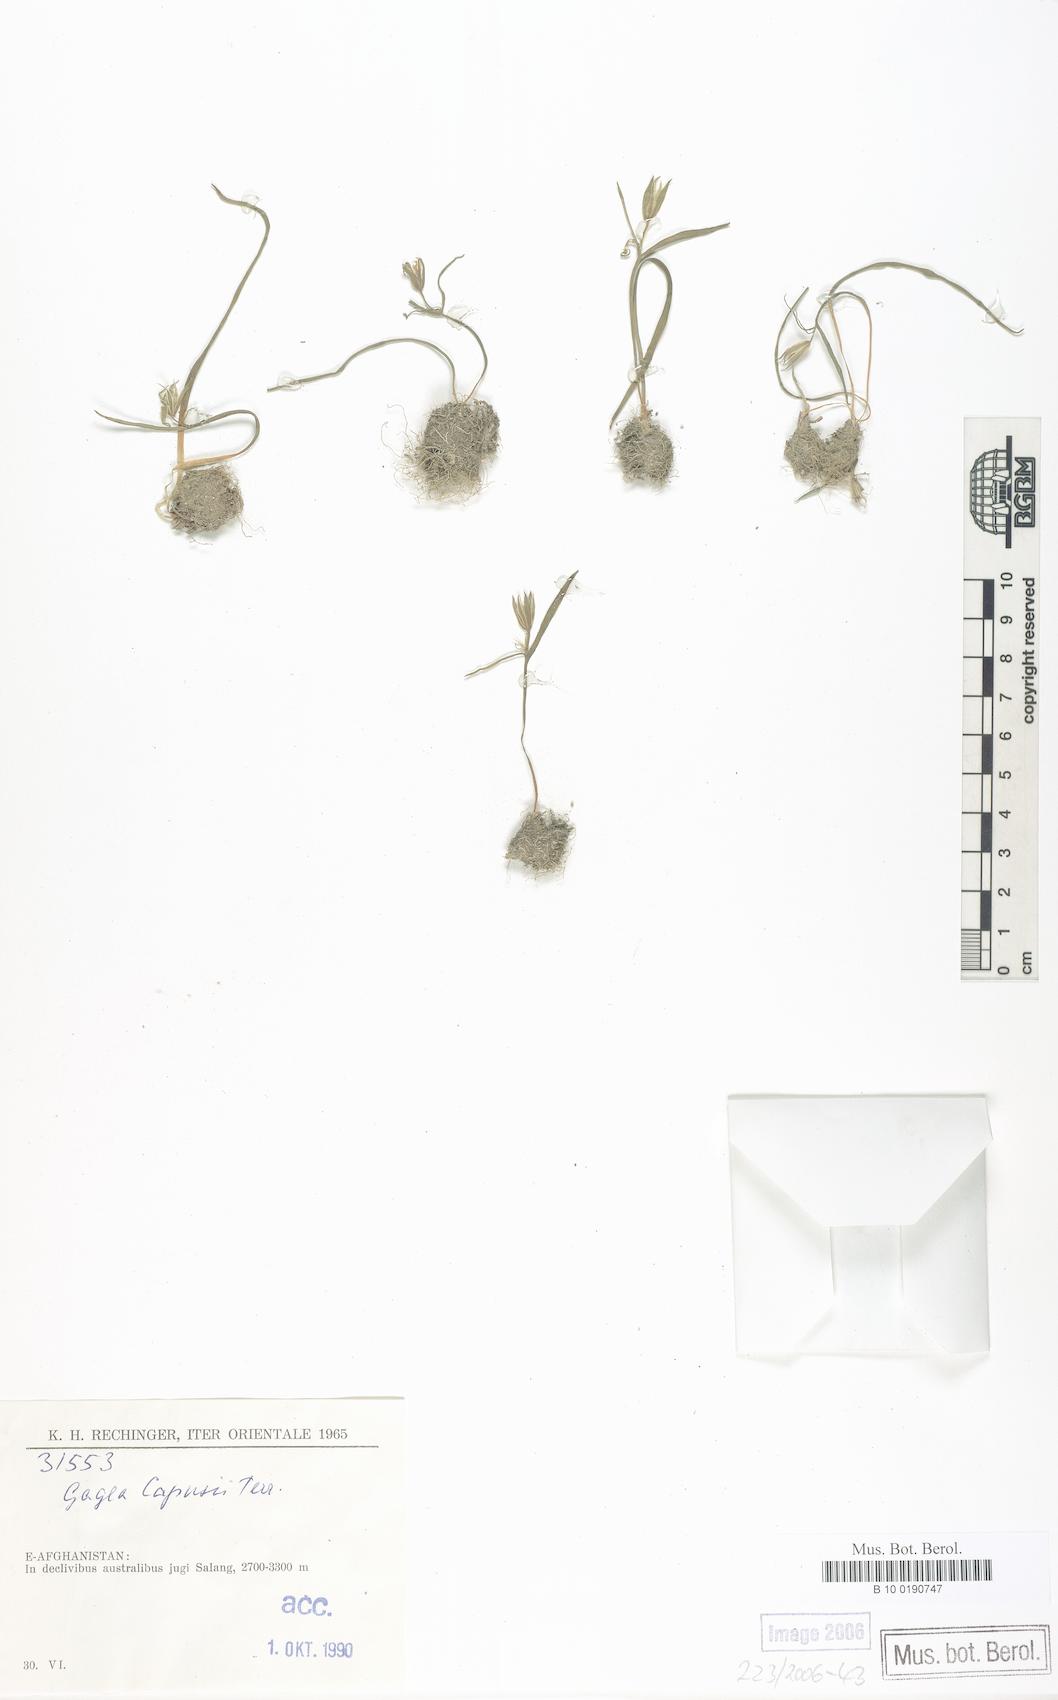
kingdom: Plantae
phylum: Tracheophyta
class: Liliopsida
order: Liliales
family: Liliaceae
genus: Gagea
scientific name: Gagea capusii
